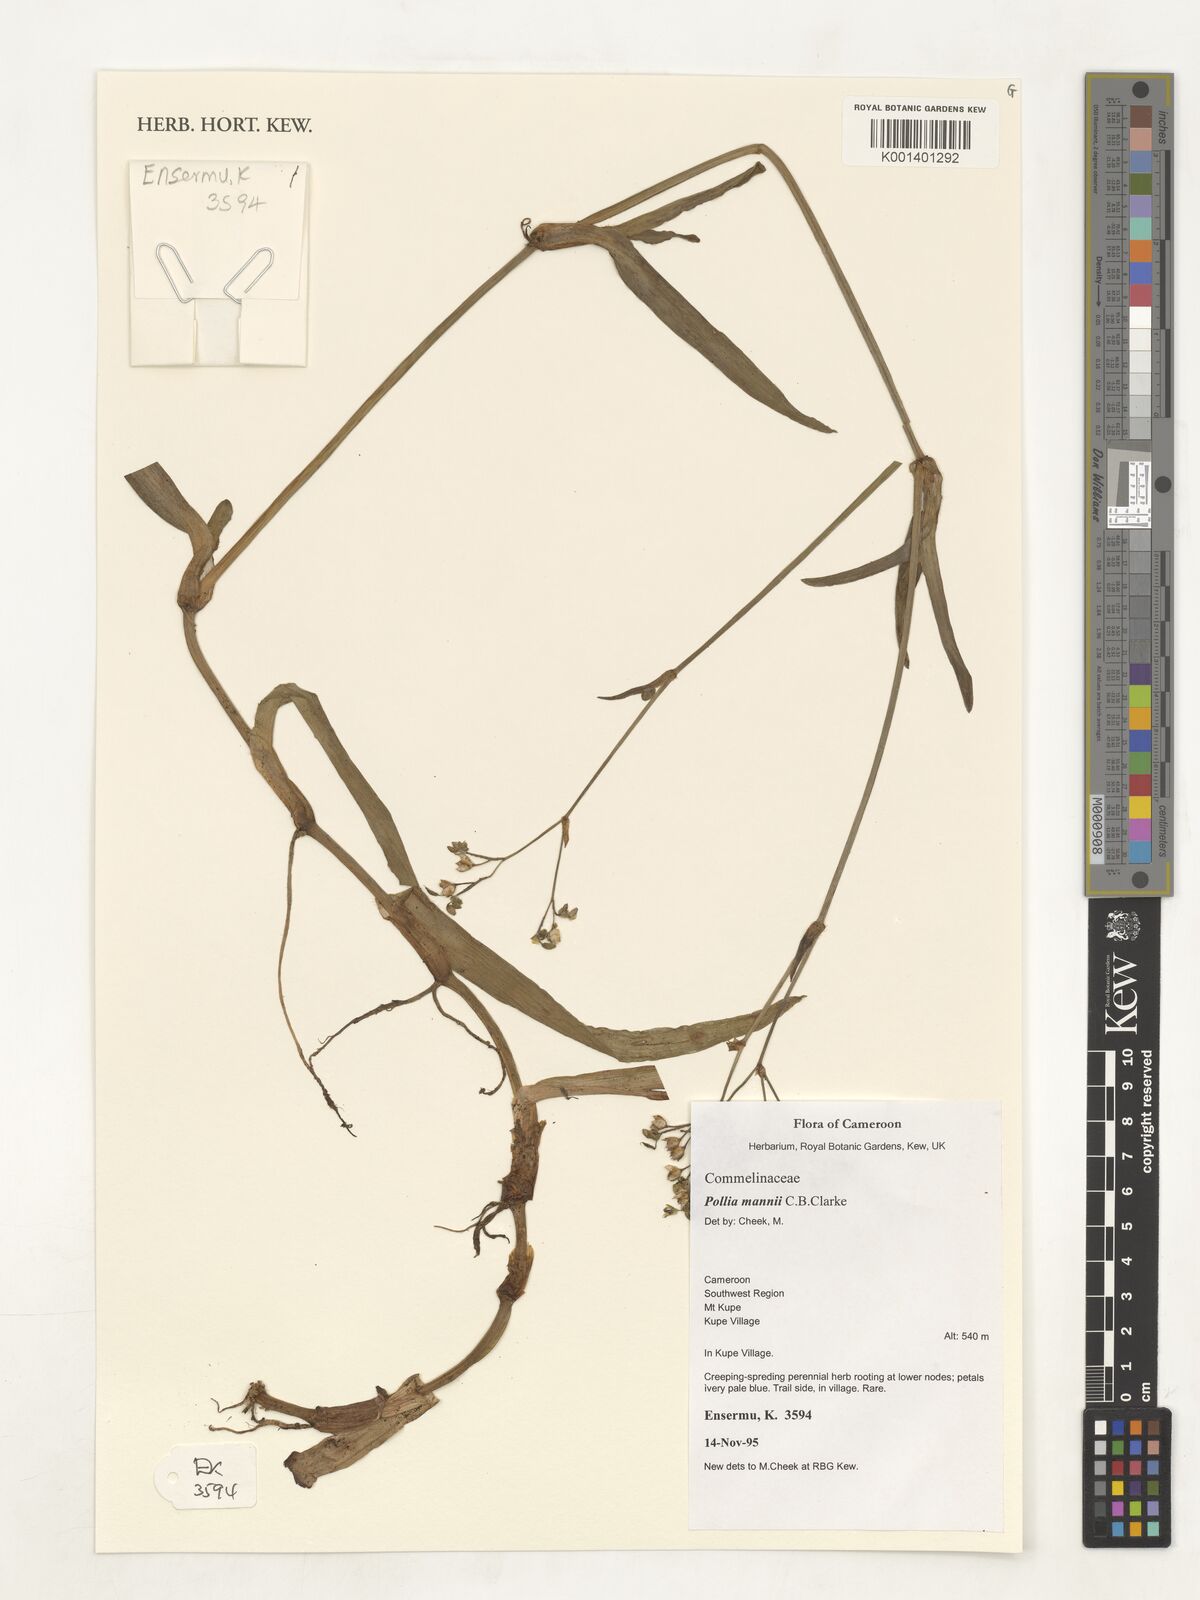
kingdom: Plantae
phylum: Tracheophyta
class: Liliopsida
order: Commelinales
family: Commelinaceae
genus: Pollia
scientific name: Pollia mannii
